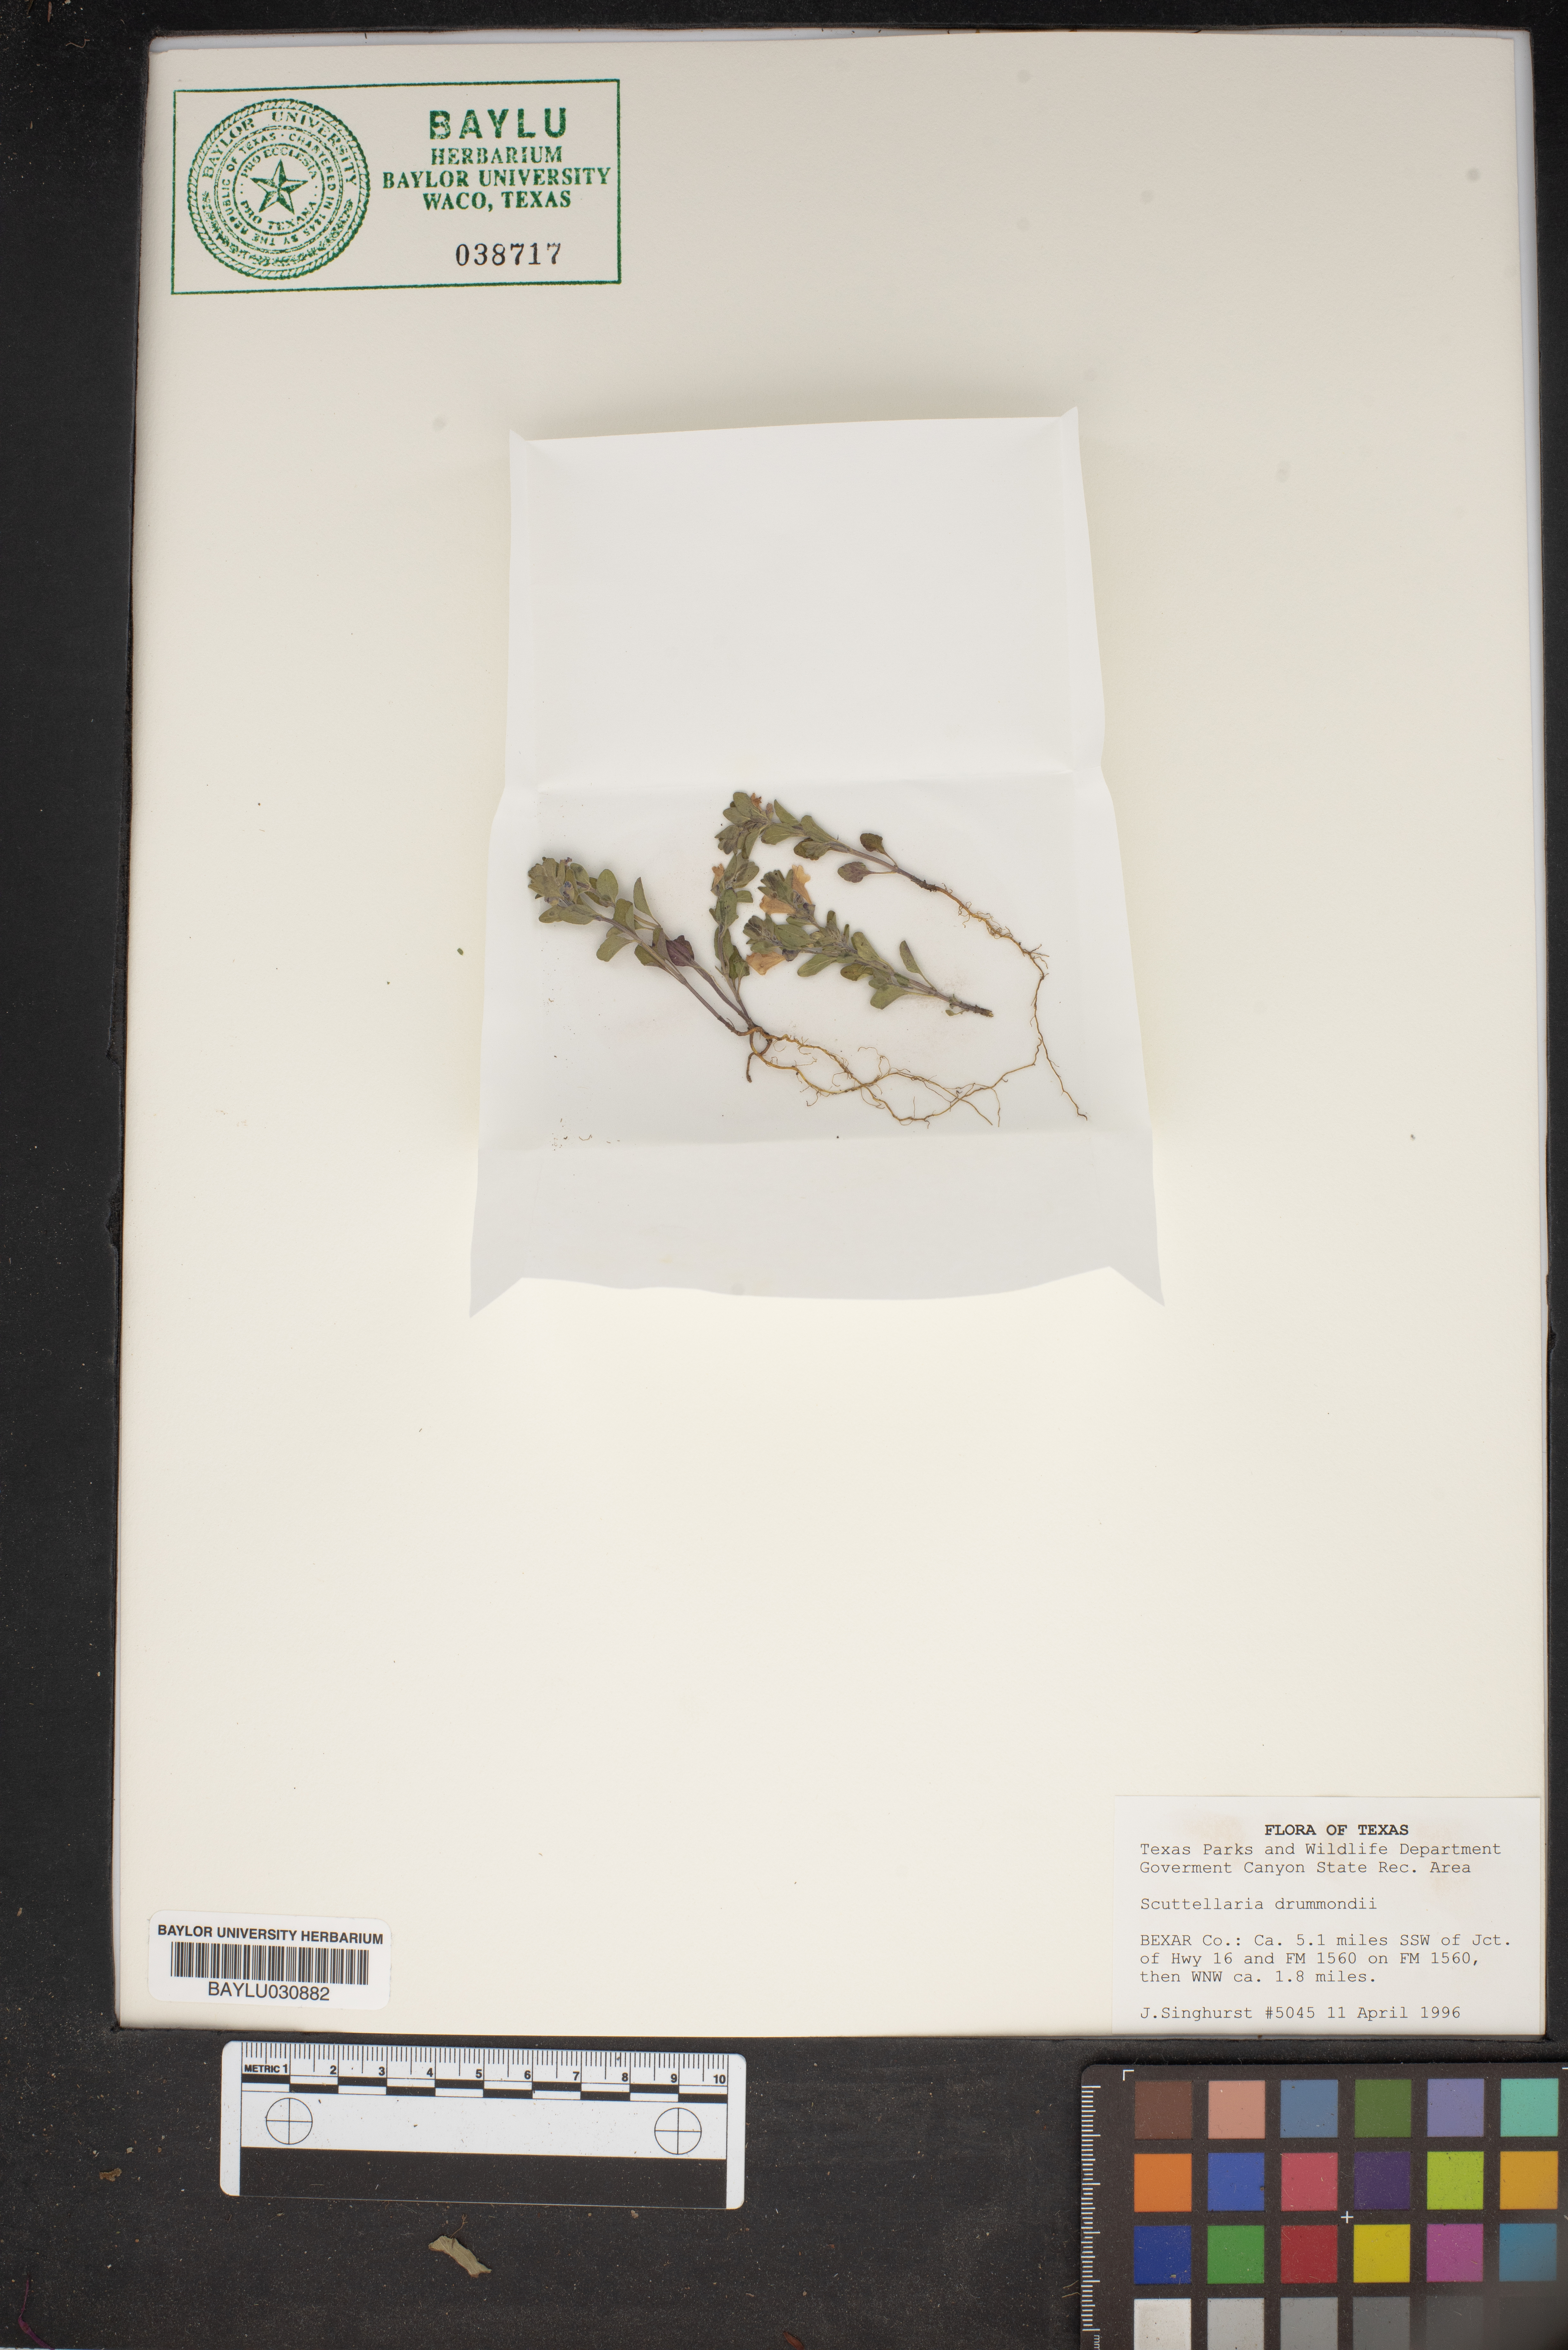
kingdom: Plantae
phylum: Tracheophyta
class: Magnoliopsida
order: Lamiales
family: Lamiaceae
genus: Scutellaria
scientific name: Scutellaria drummondii
